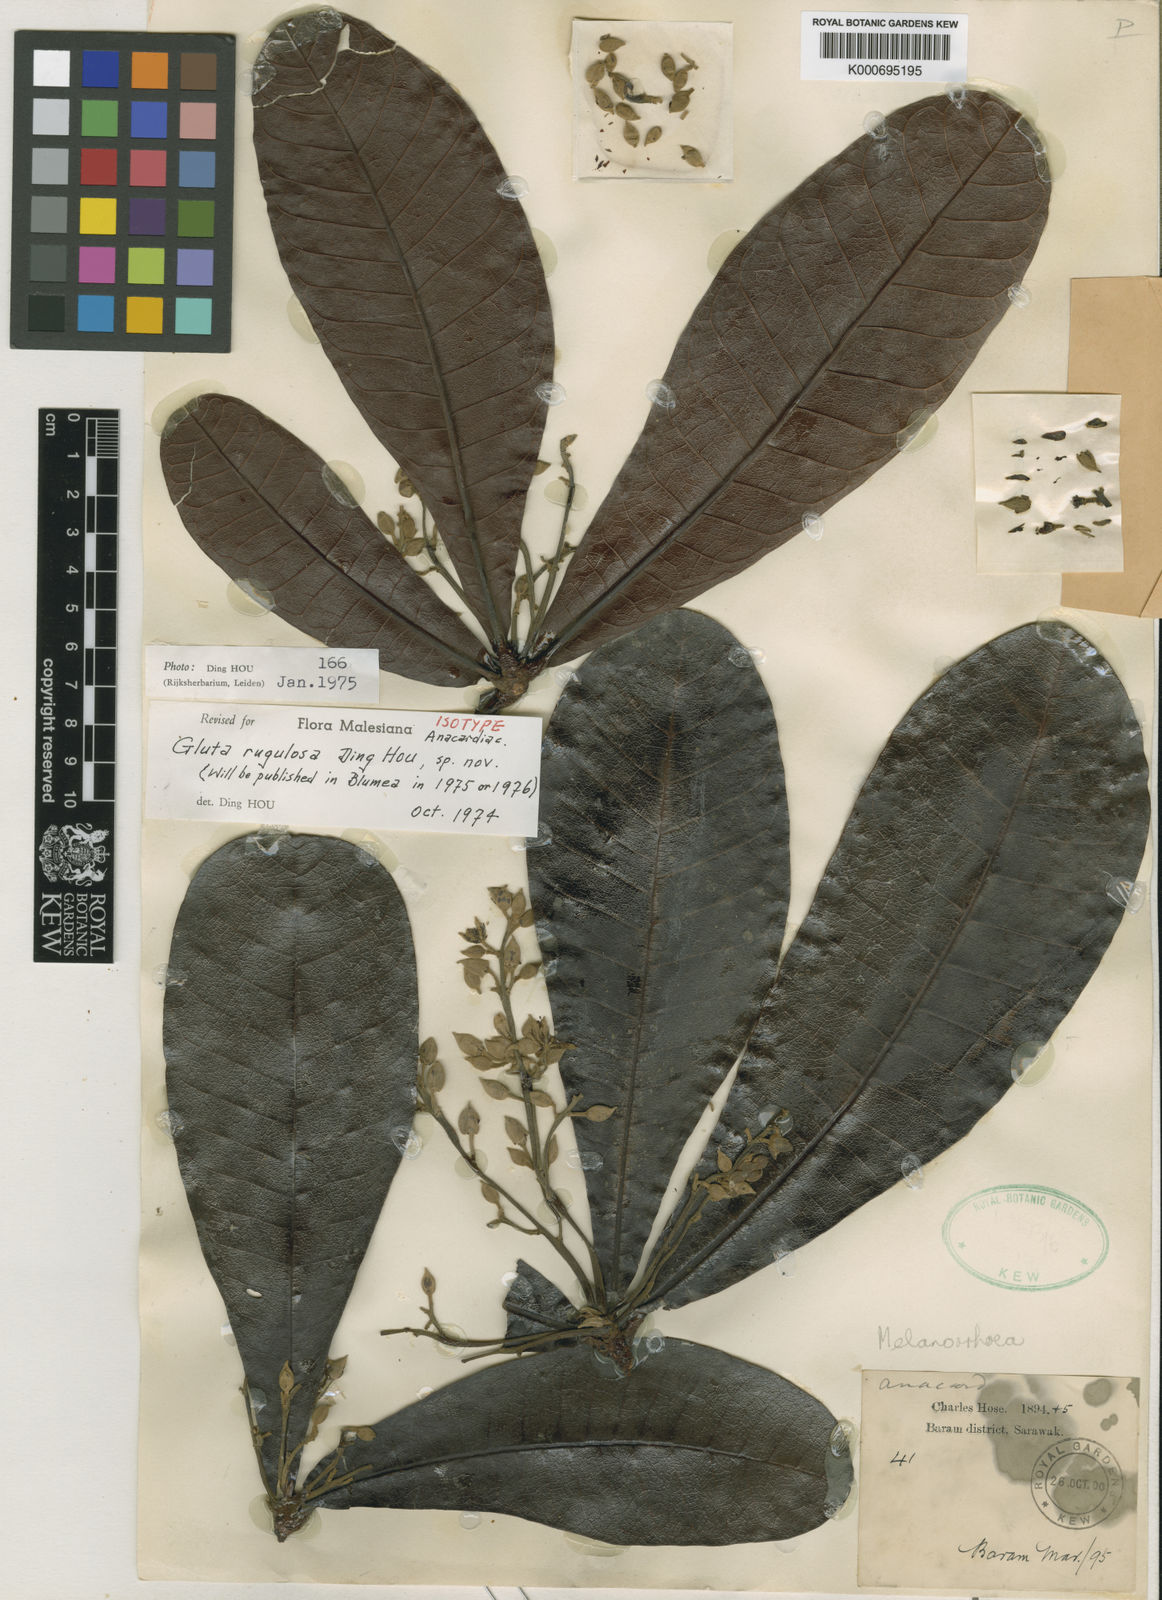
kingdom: Plantae
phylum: Tracheophyta
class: Magnoliopsida
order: Sapindales
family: Anacardiaceae
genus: Gluta
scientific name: Gluta rugulosa
